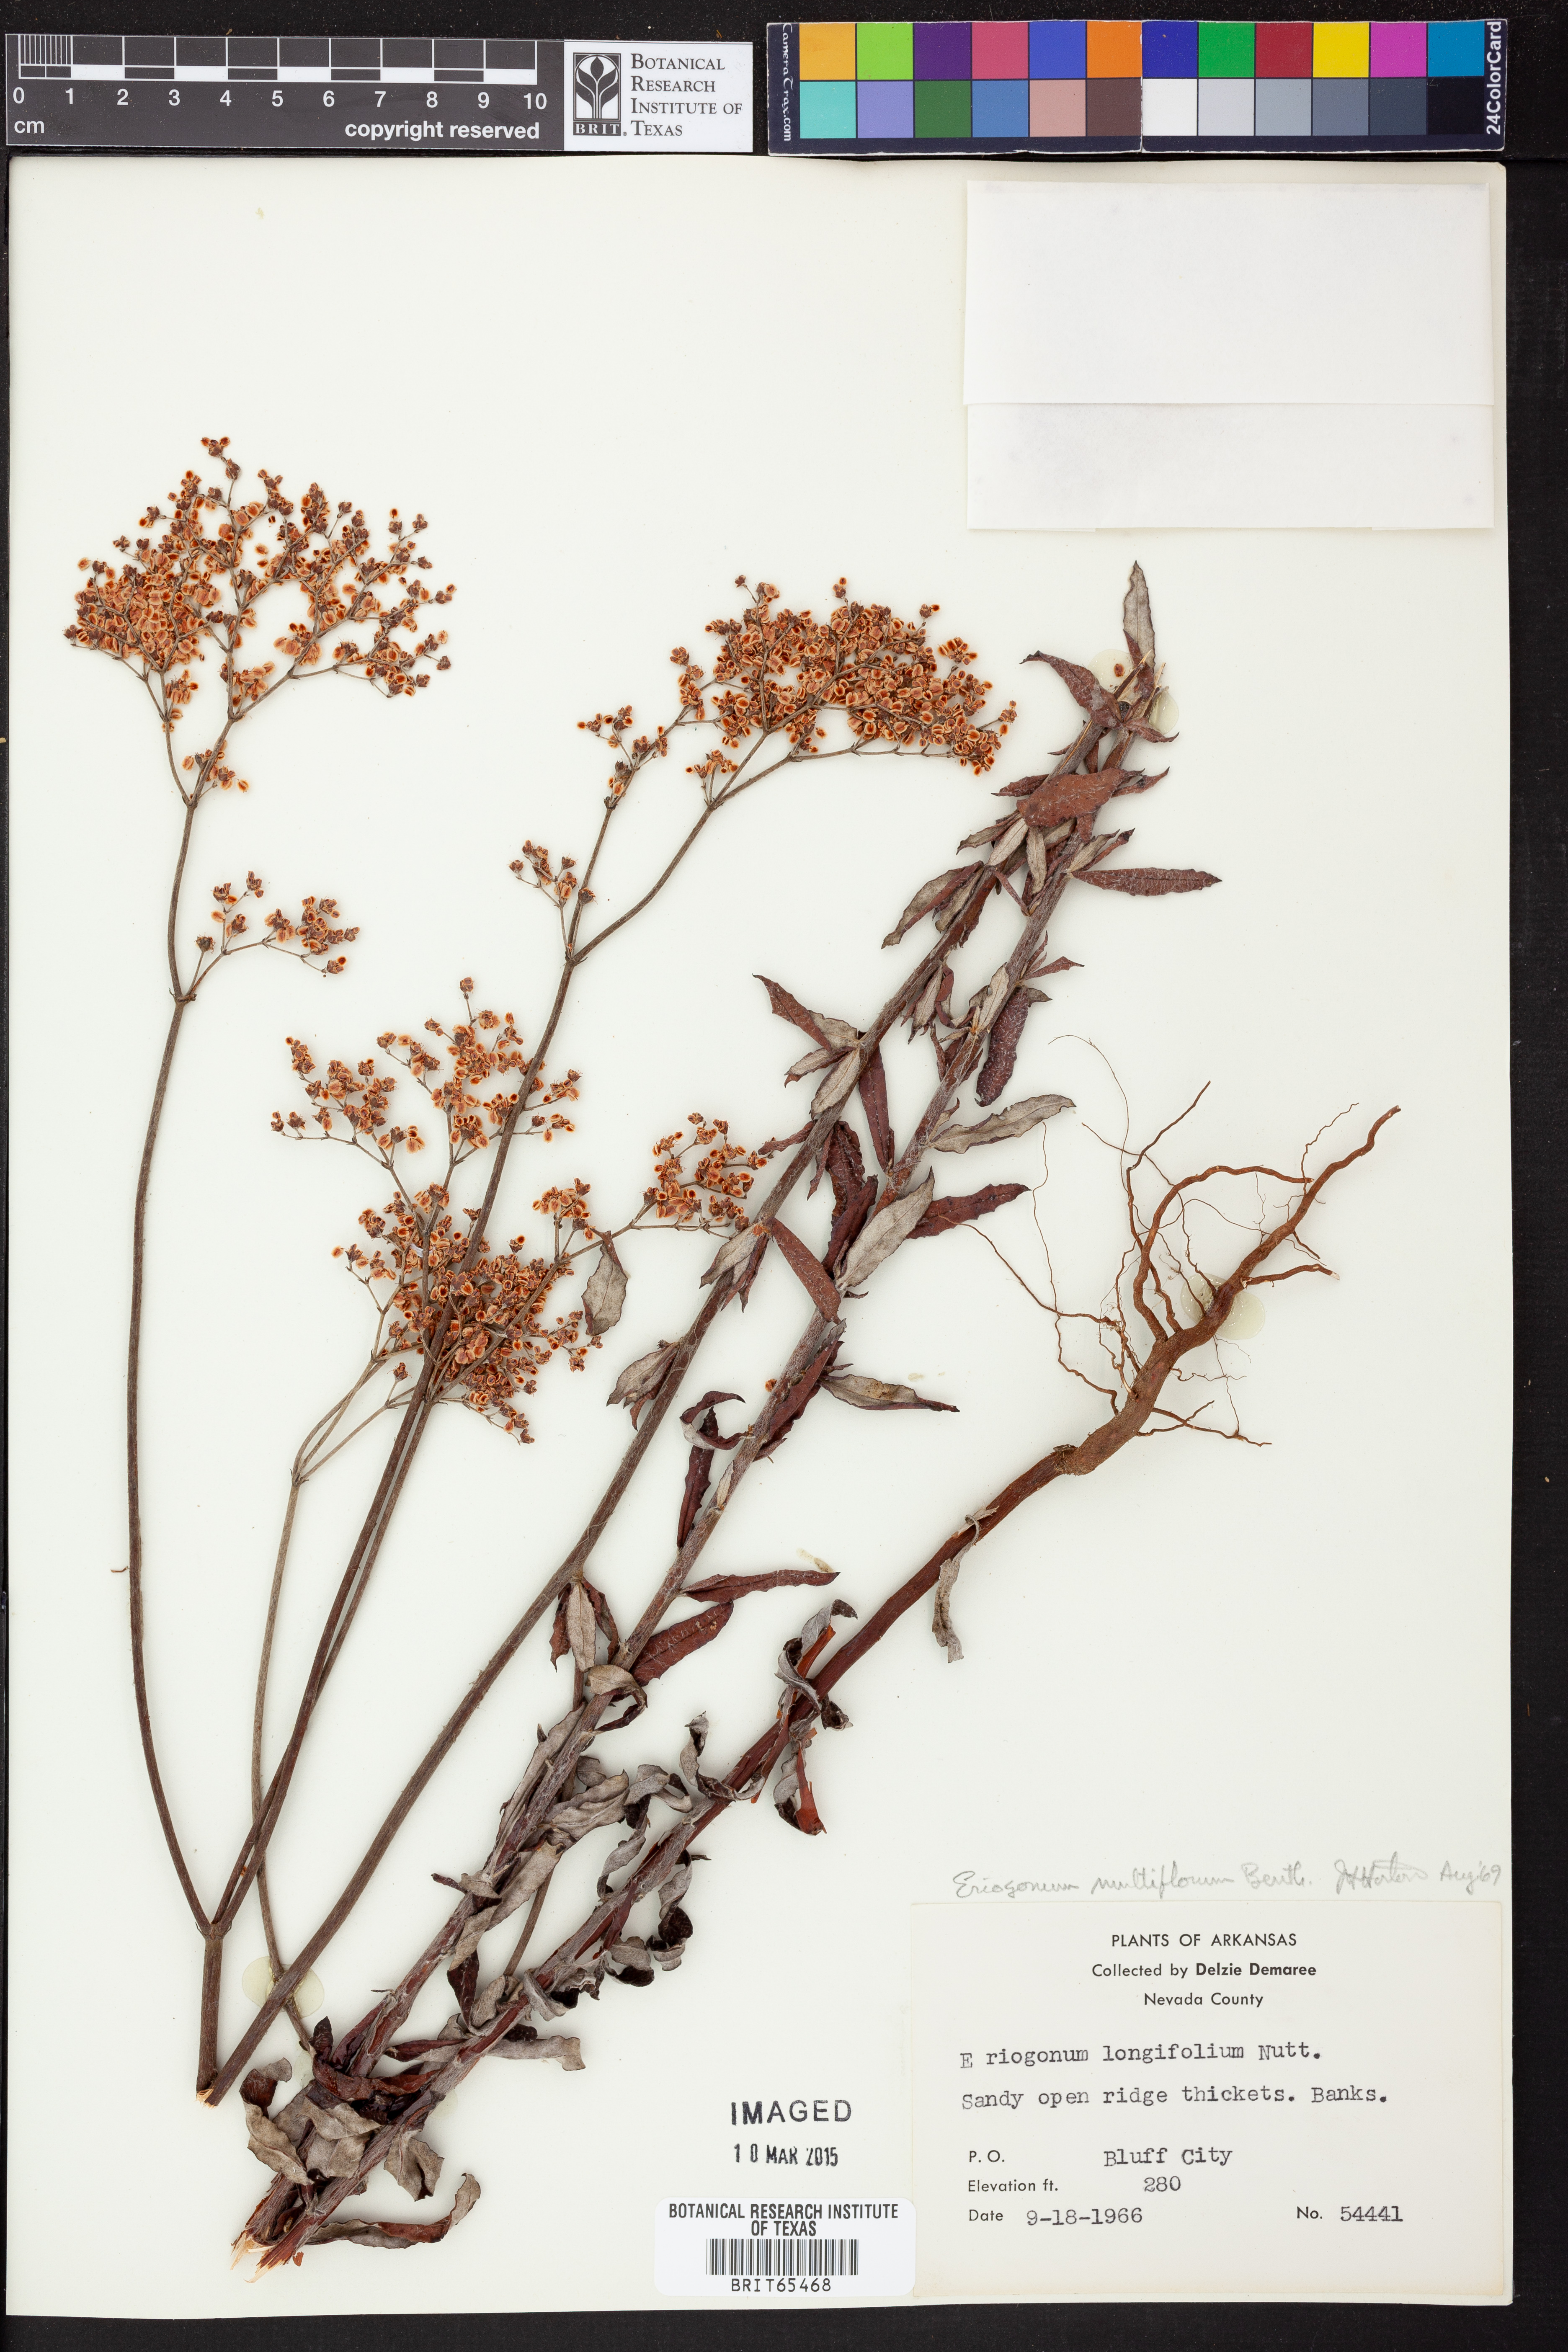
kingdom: Plantae
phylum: Tracheophyta
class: Magnoliopsida
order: Caryophyllales
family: Polygonaceae
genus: Eriogonum
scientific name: Eriogonum multiflorum
